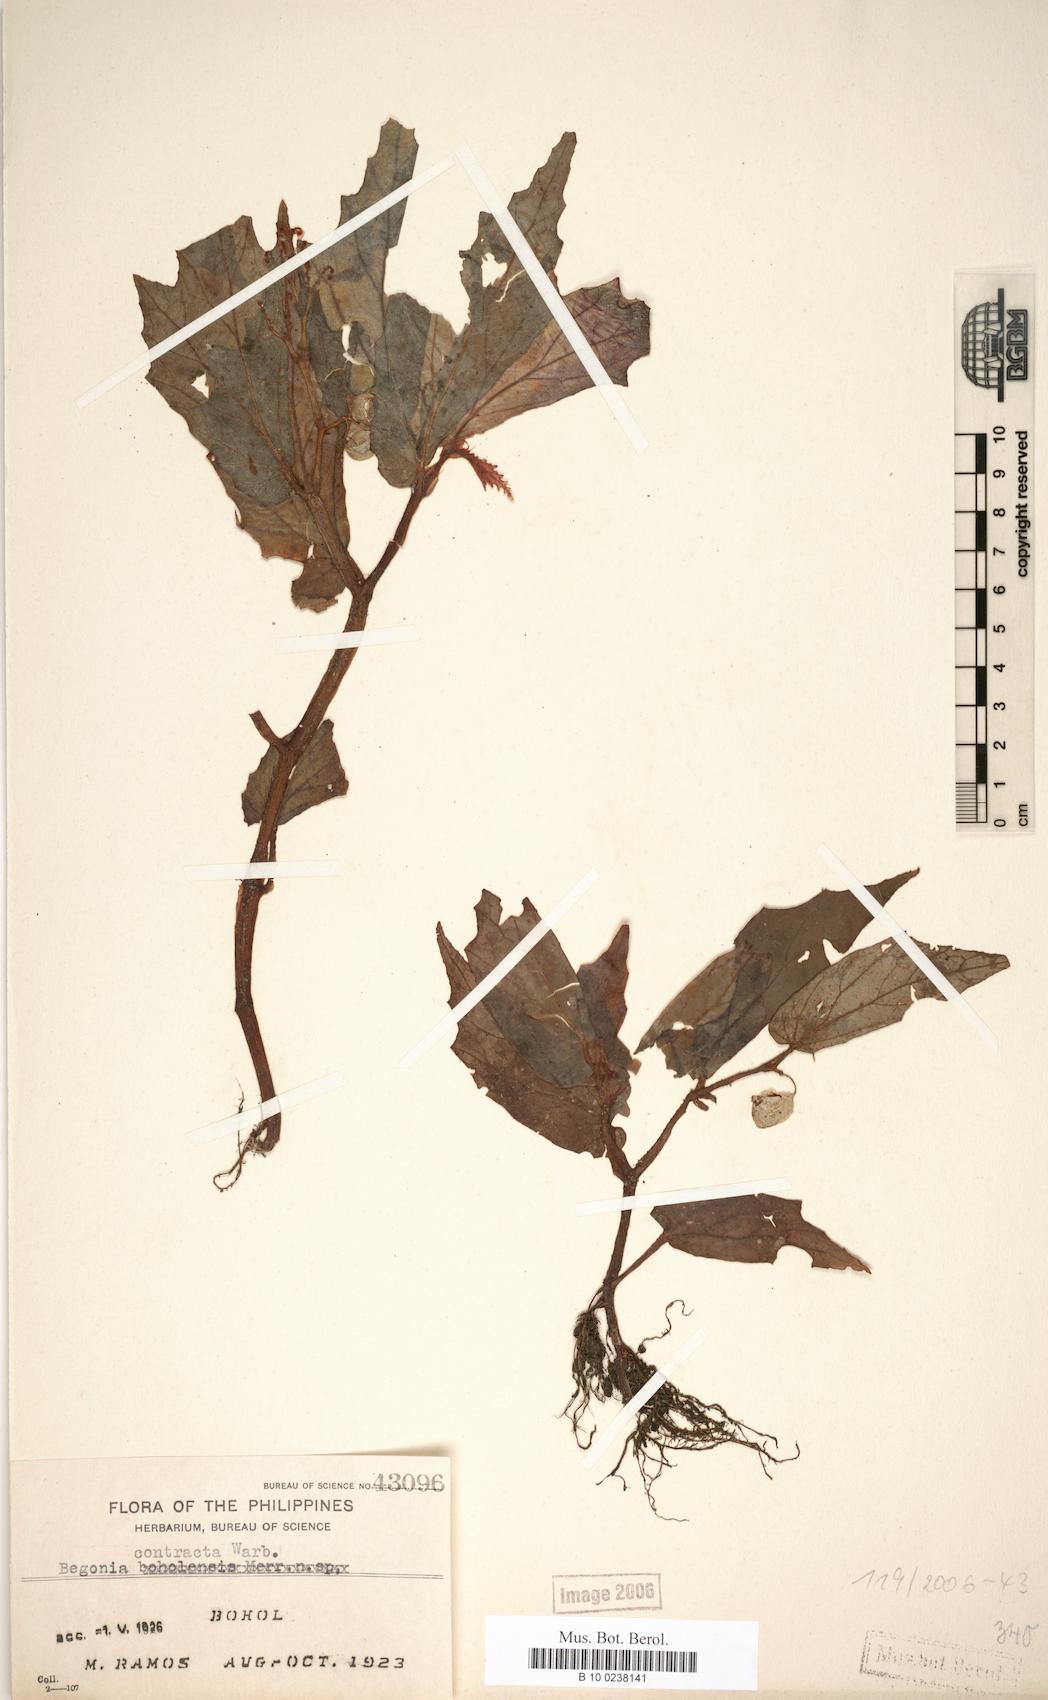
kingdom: Plantae
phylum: Tracheophyta
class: Magnoliopsida
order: Cucurbitales
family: Begoniaceae
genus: Begonia
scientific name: Begonia contracta
